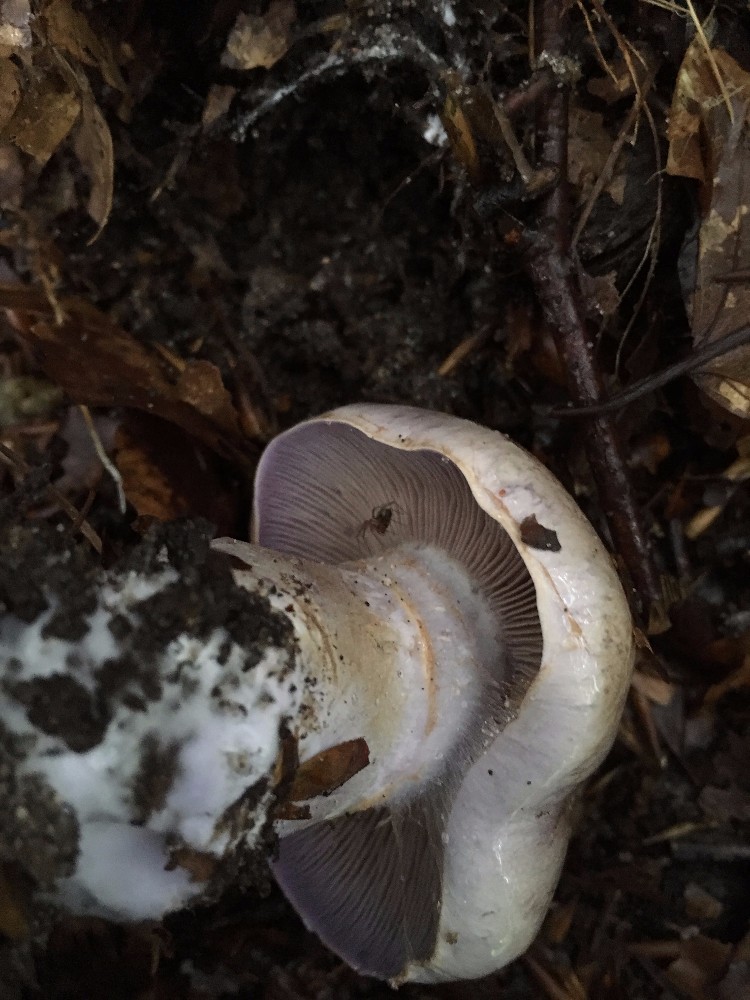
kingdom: Fungi
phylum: Basidiomycota
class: Agaricomycetes
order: Agaricales
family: Cortinariaceae
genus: Cortinarius
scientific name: Cortinarius largus
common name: violetrandet slørhat
